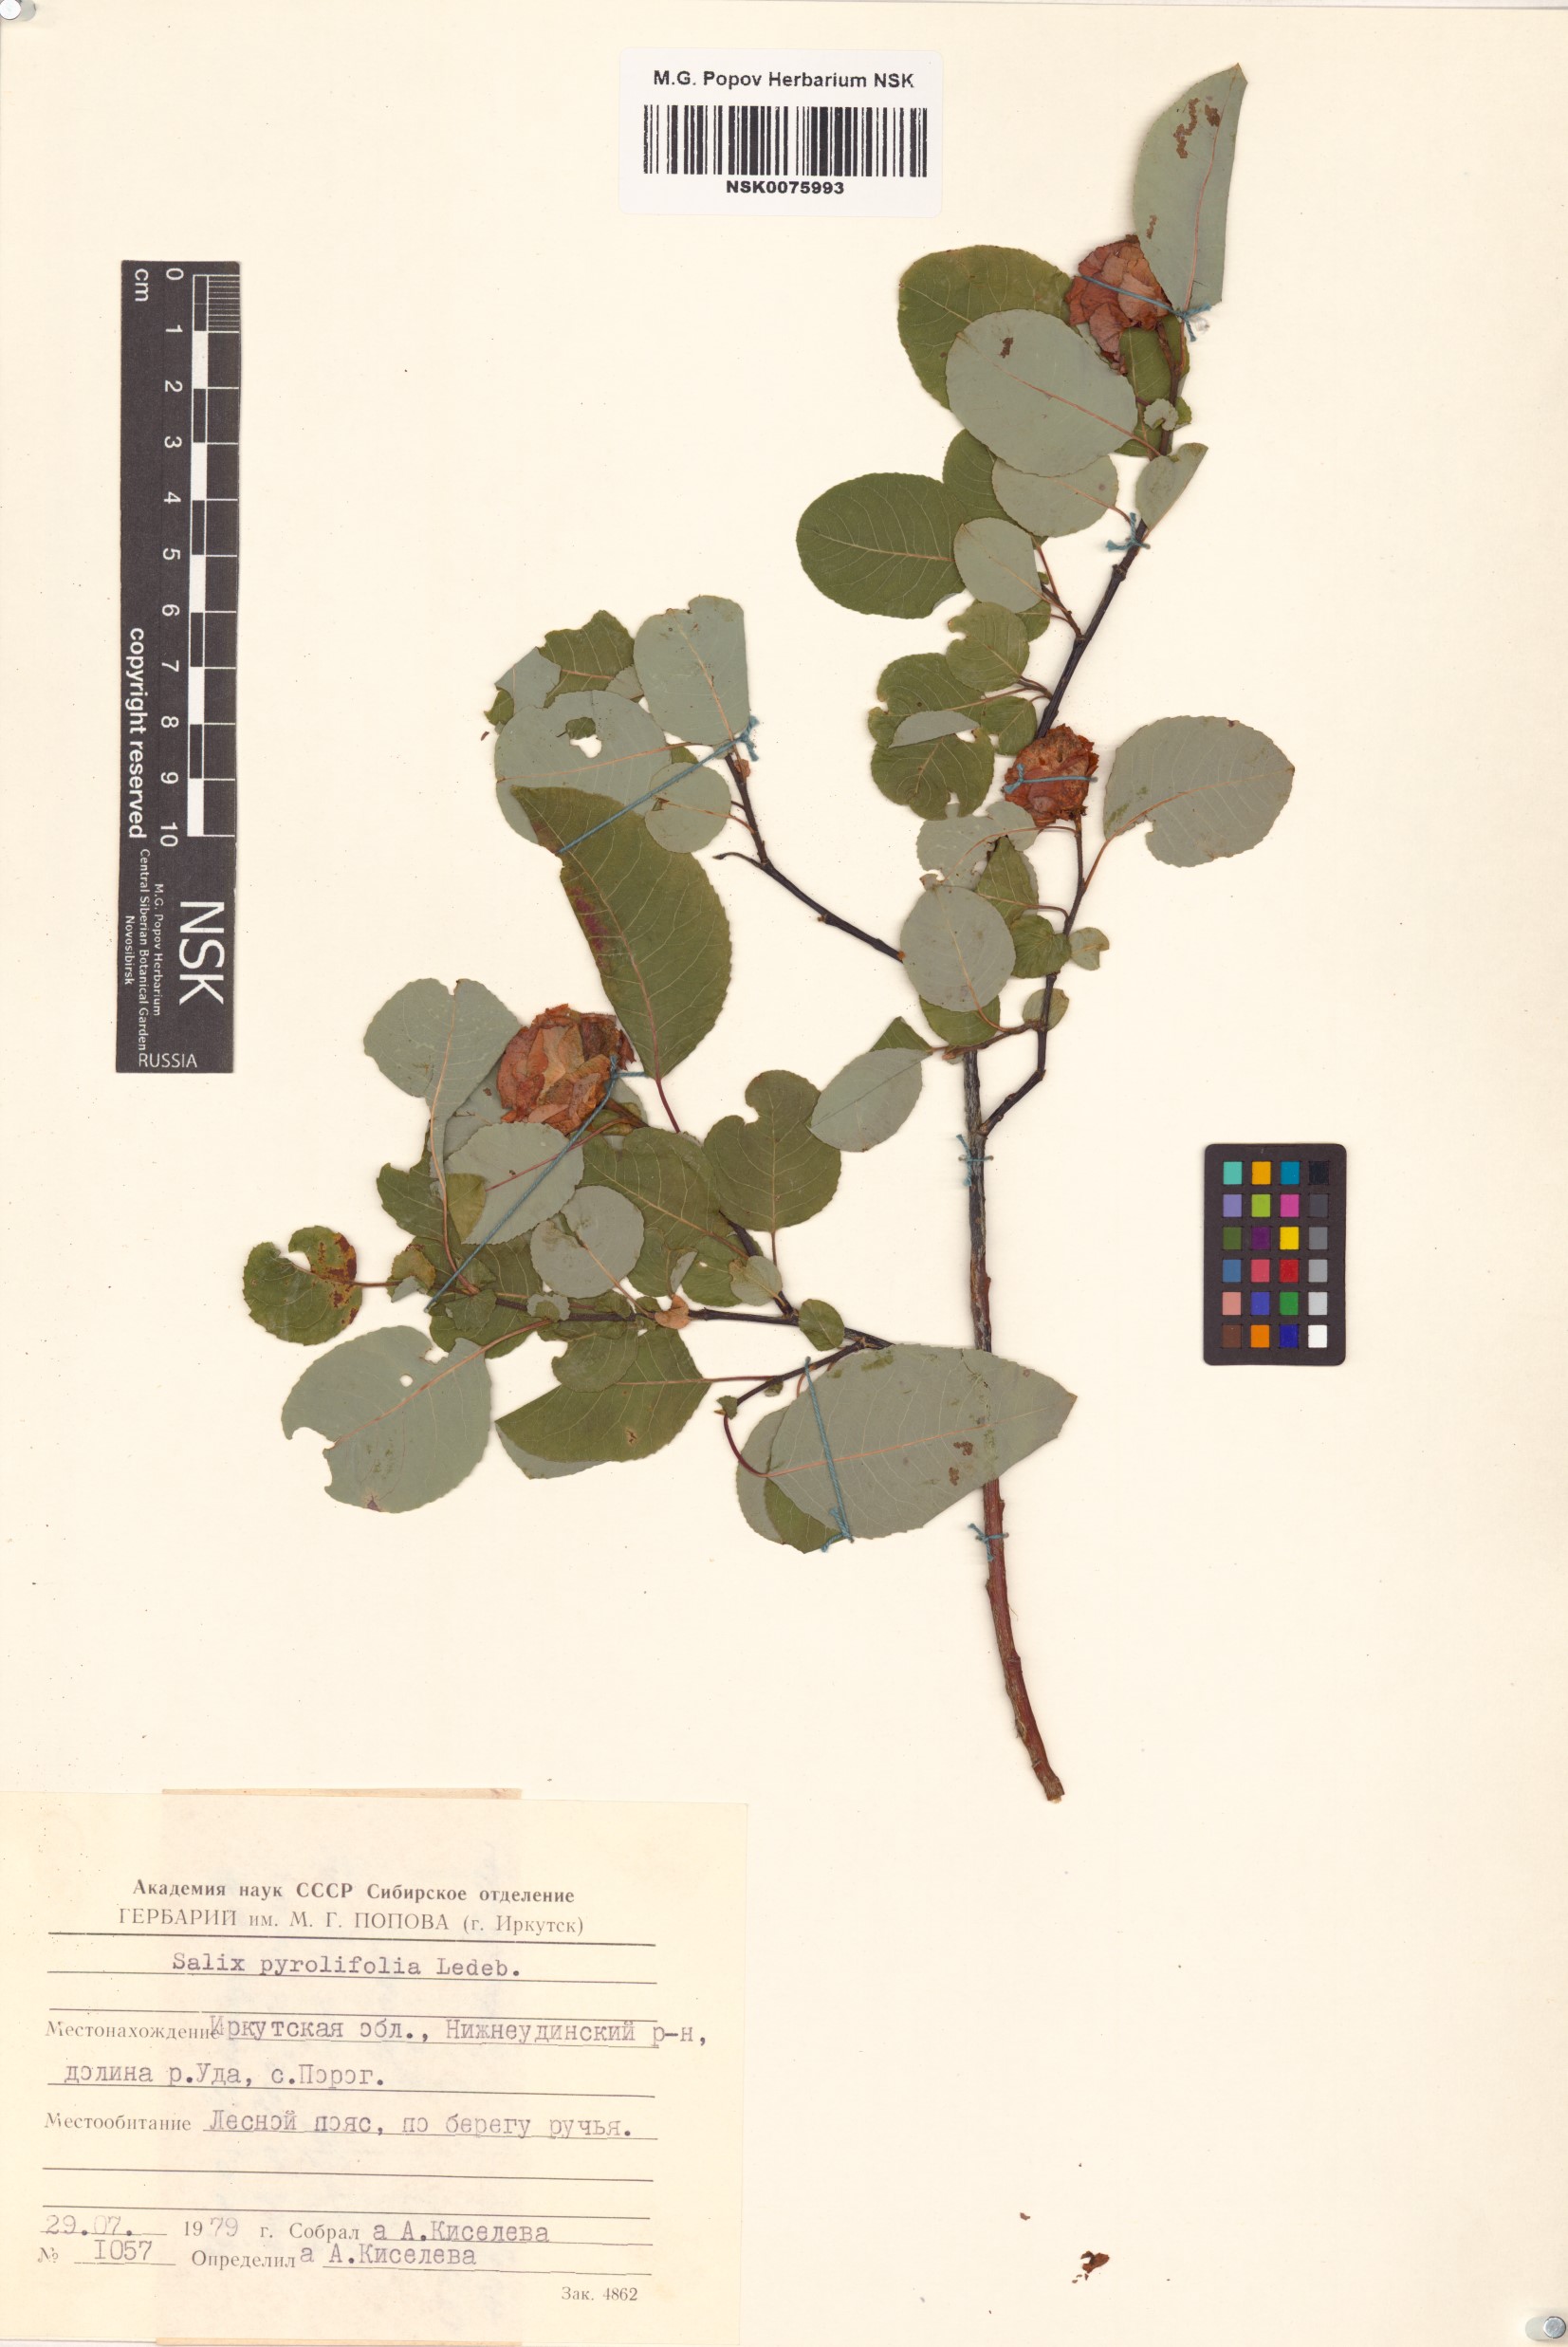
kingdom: Plantae
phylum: Tracheophyta
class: Magnoliopsida
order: Malpighiales
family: Salicaceae
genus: Salix
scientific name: Salix pyrolifolia
